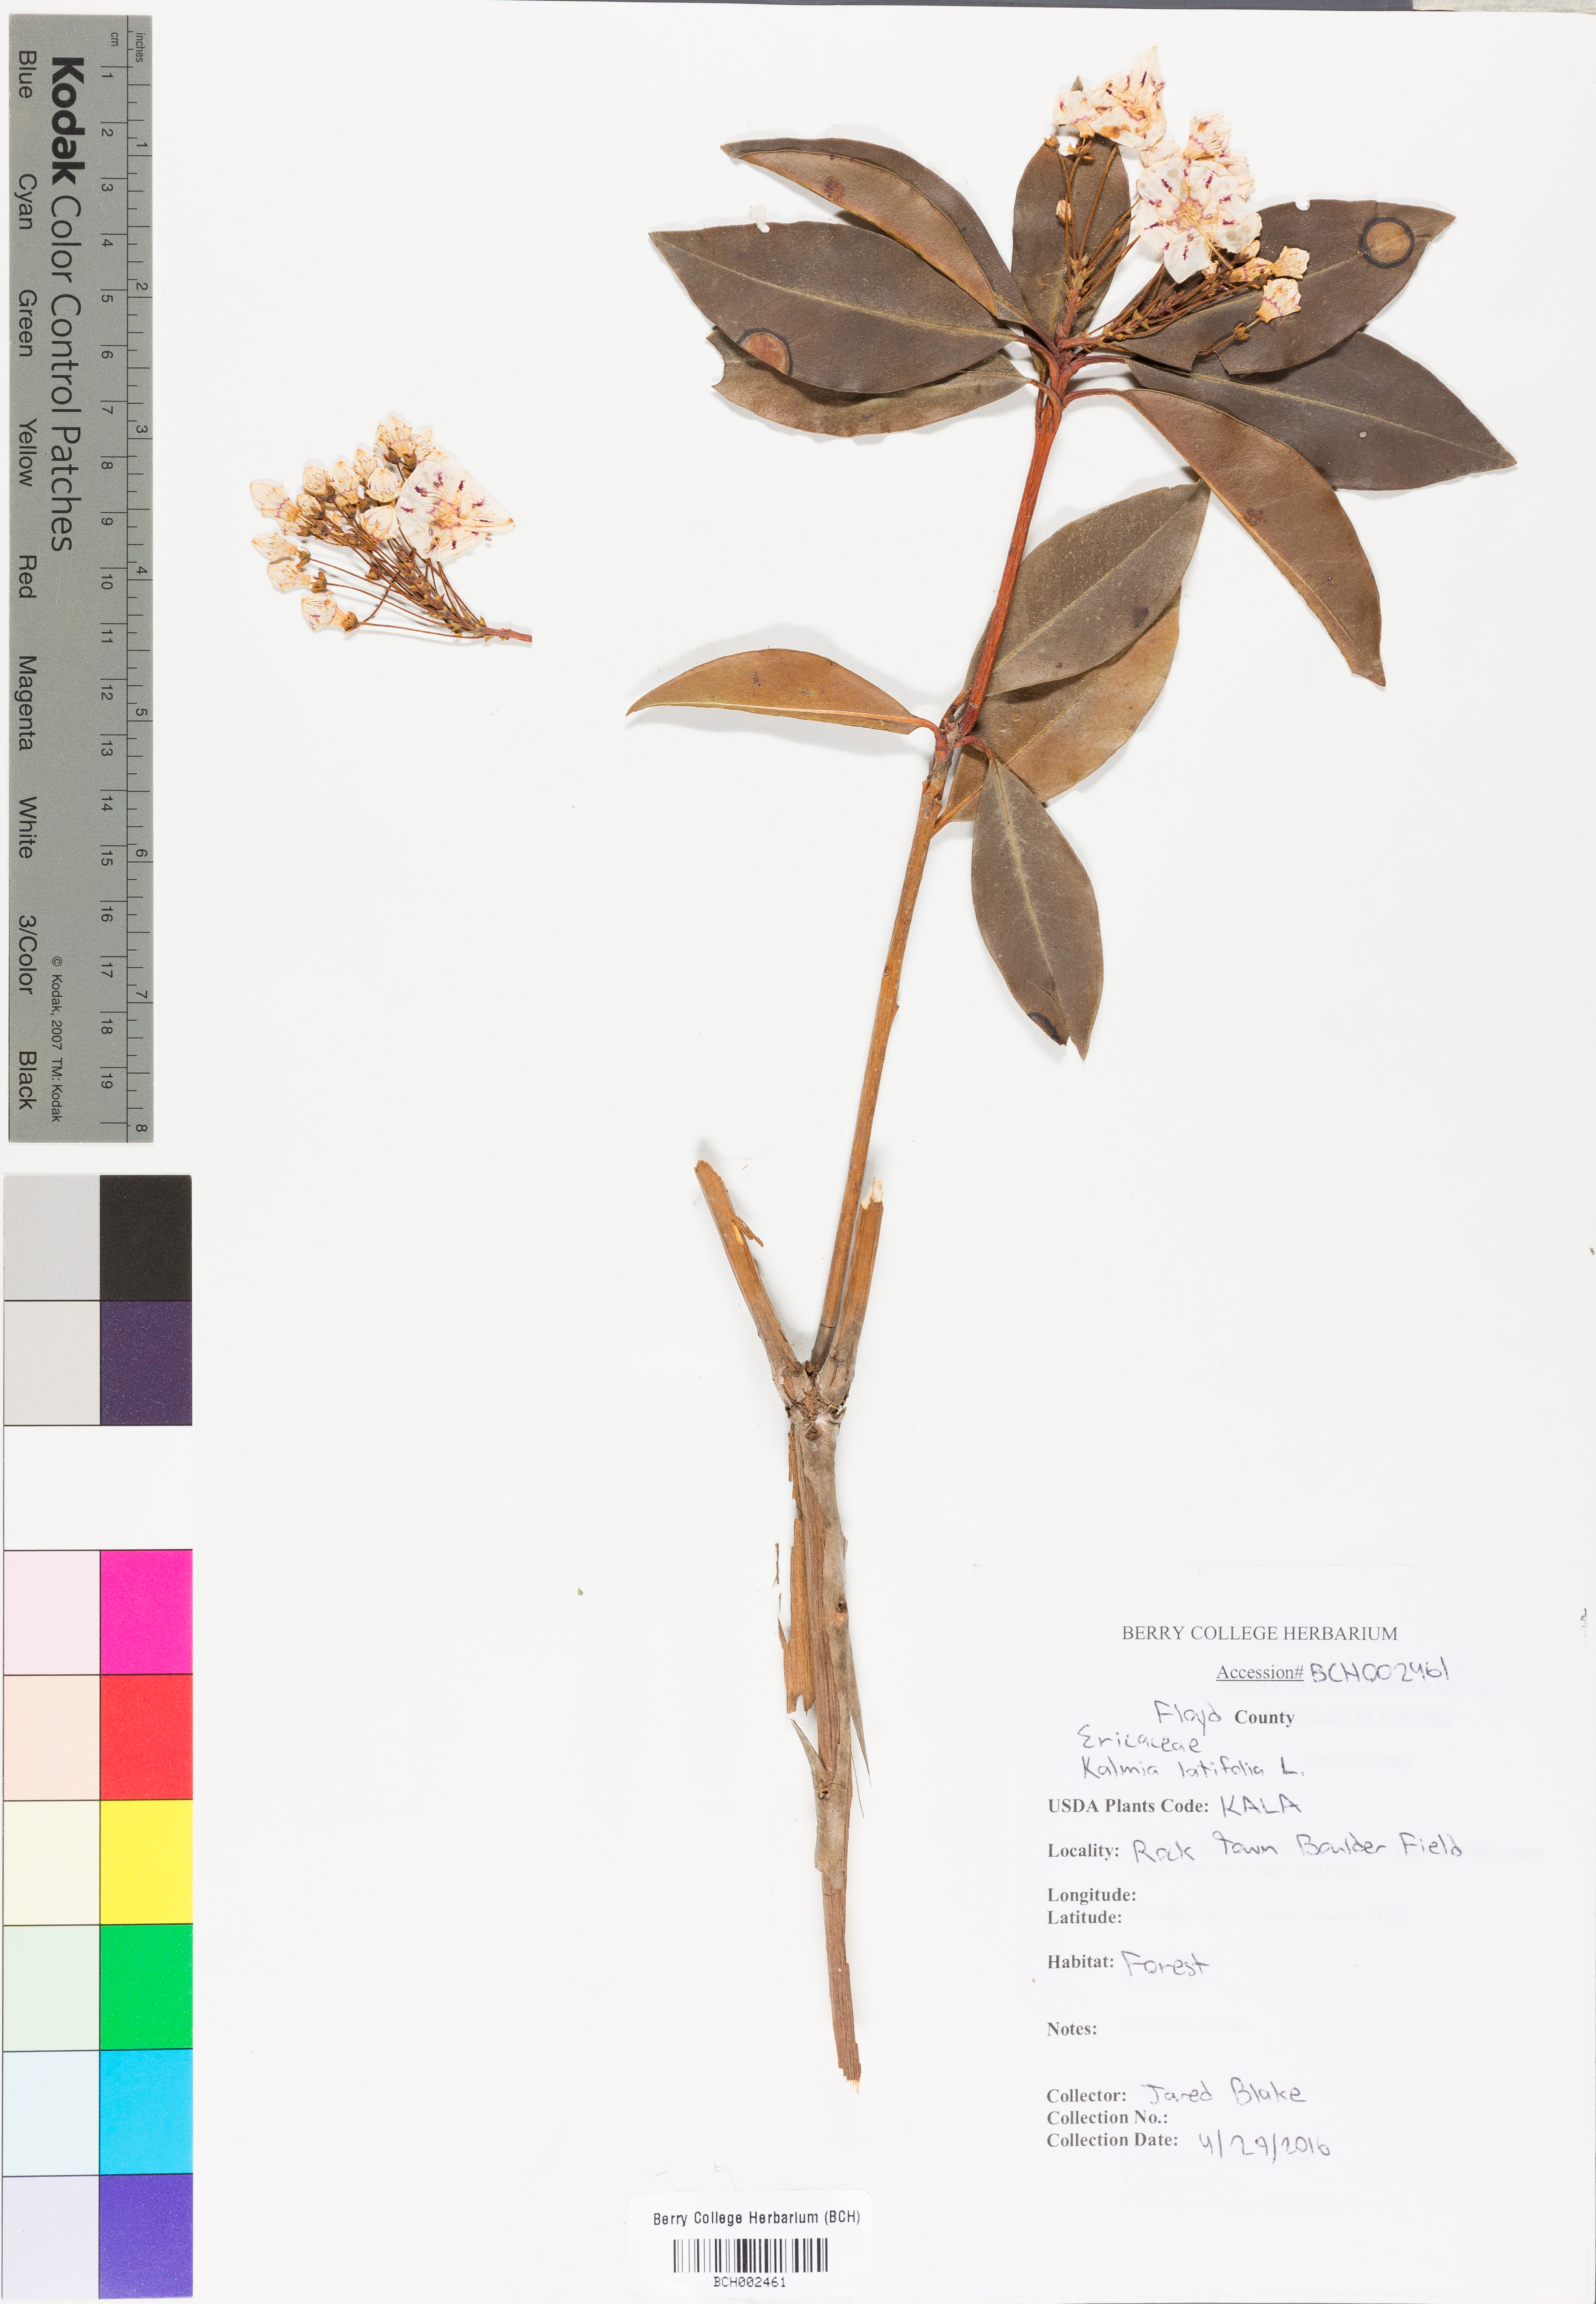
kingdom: Plantae
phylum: Tracheophyta
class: Magnoliopsida
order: Ericales
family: Ericaceae
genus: Kalmia
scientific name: Kalmia latifolia
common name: Mountain-laurel
